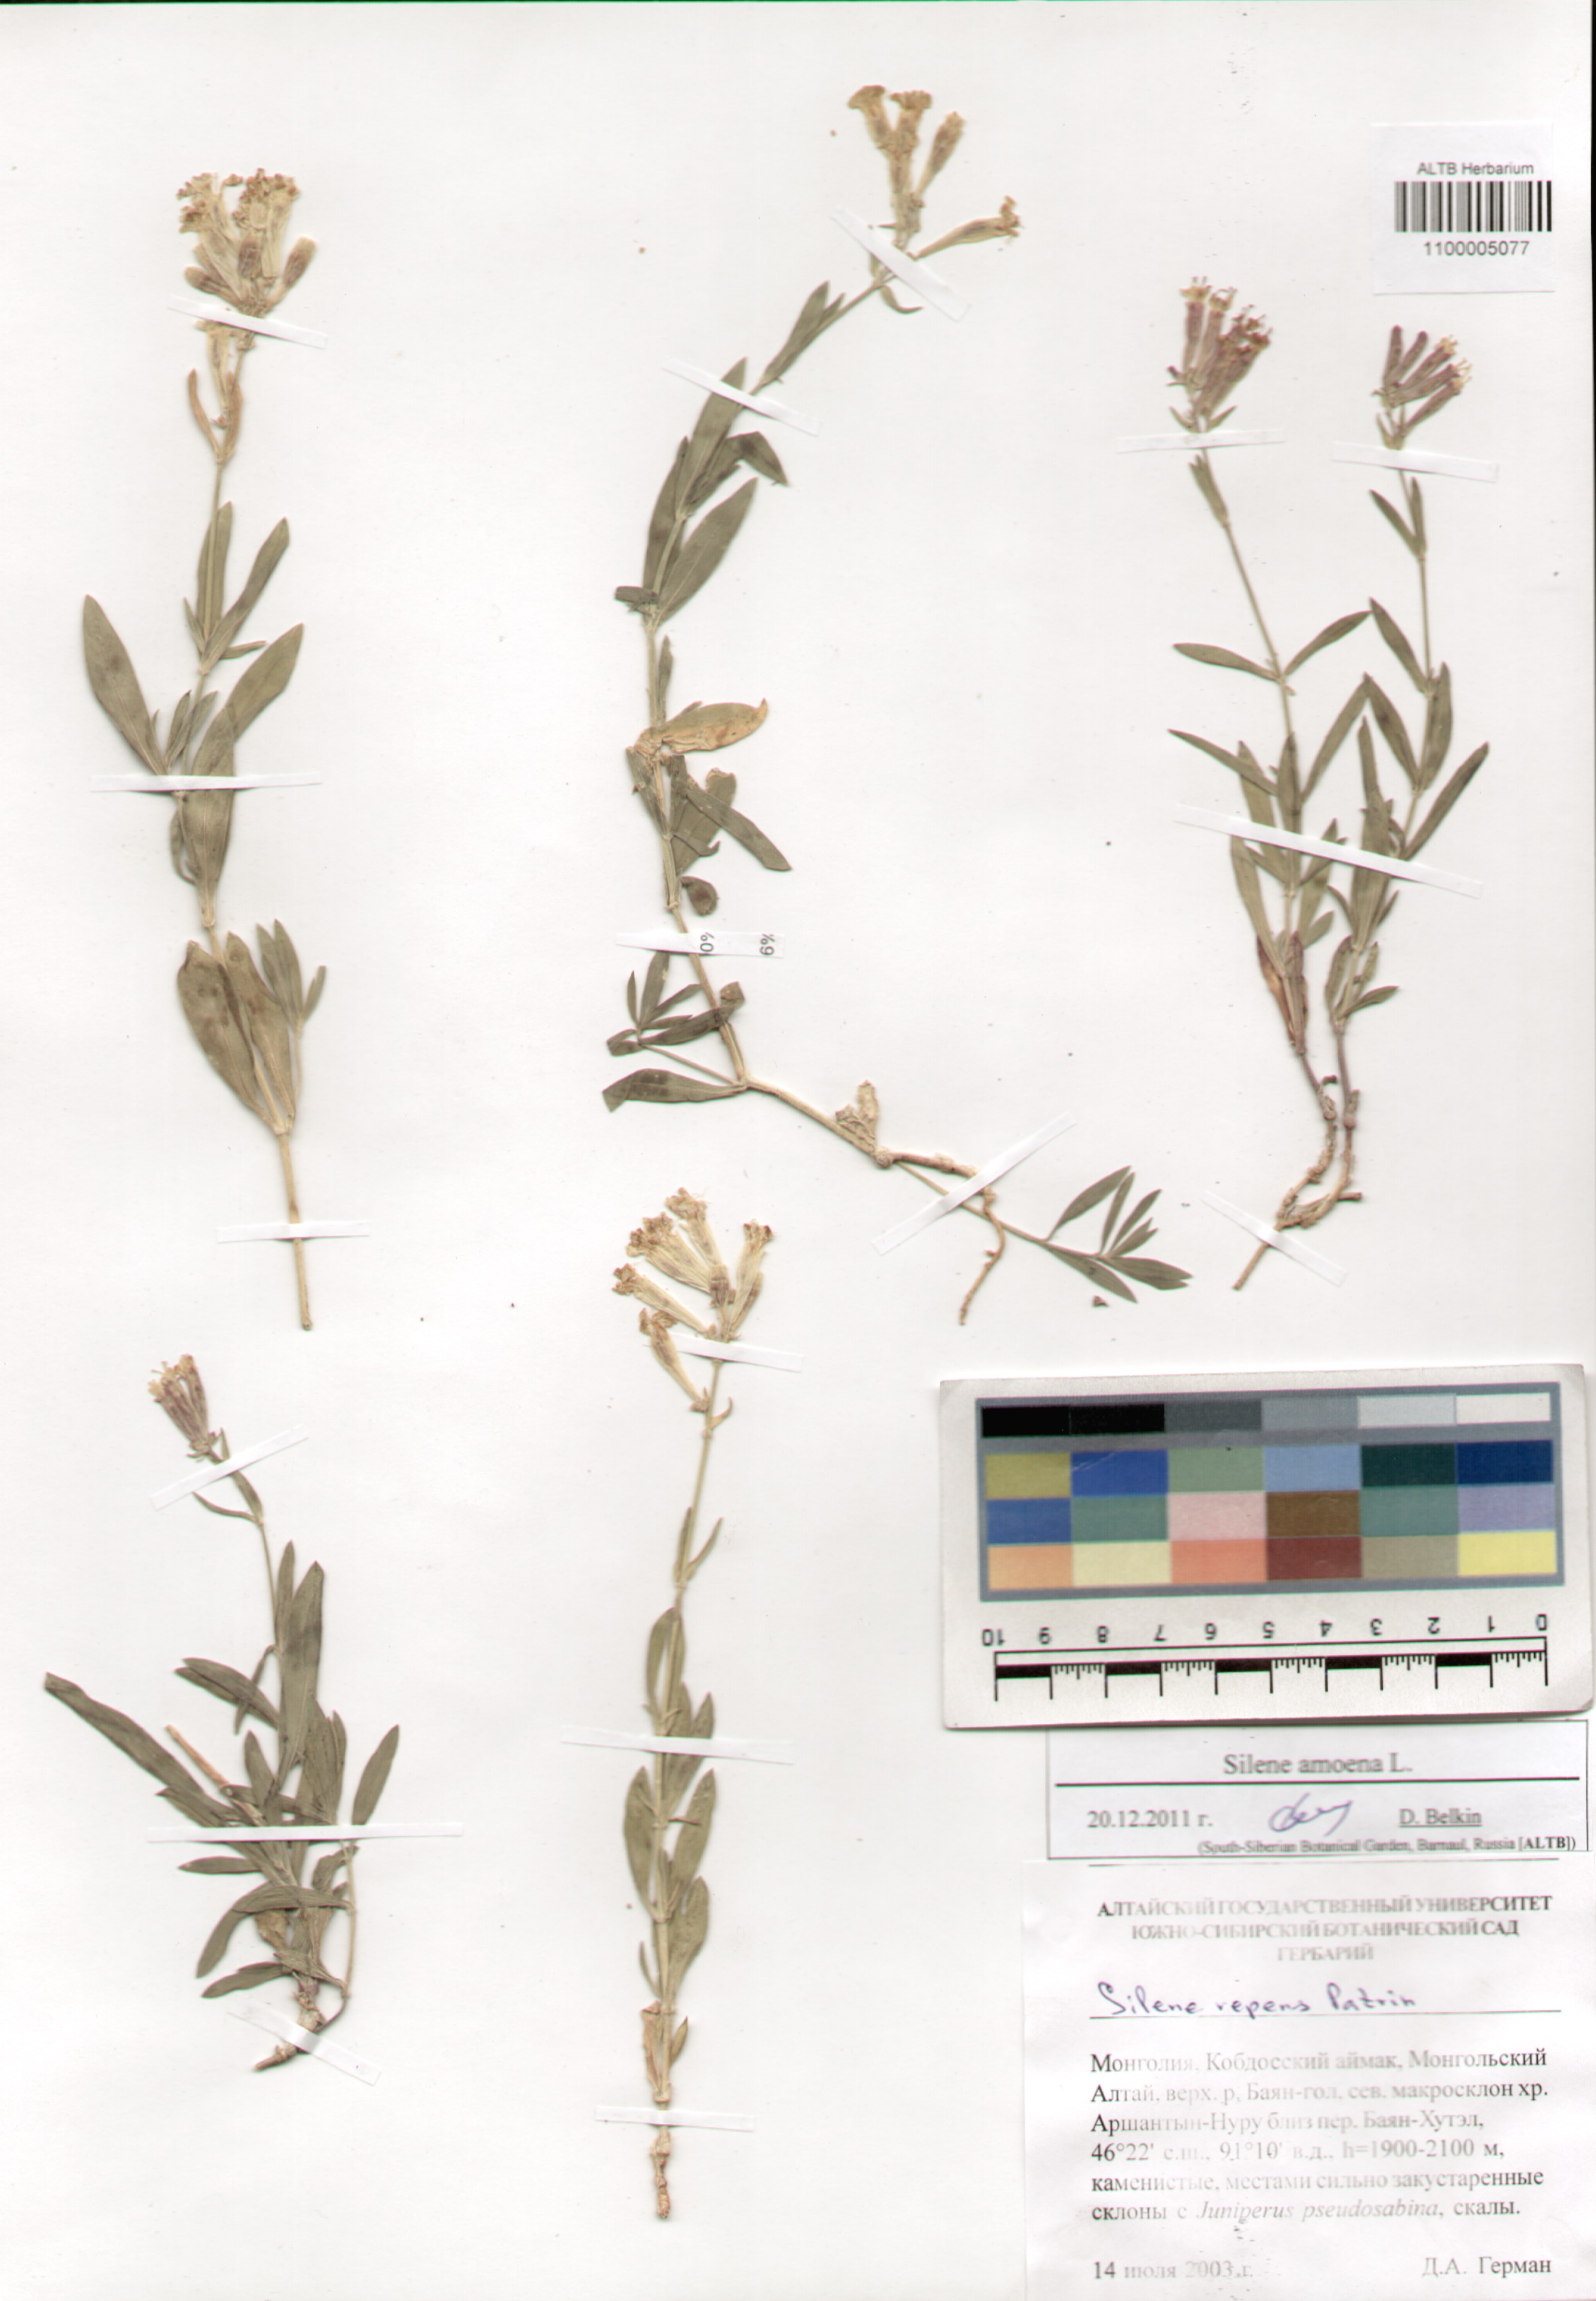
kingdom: Plantae
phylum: Tracheophyta
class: Magnoliopsida
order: Caryophyllales
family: Caryophyllaceae
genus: Silene
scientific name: Silene amoena
